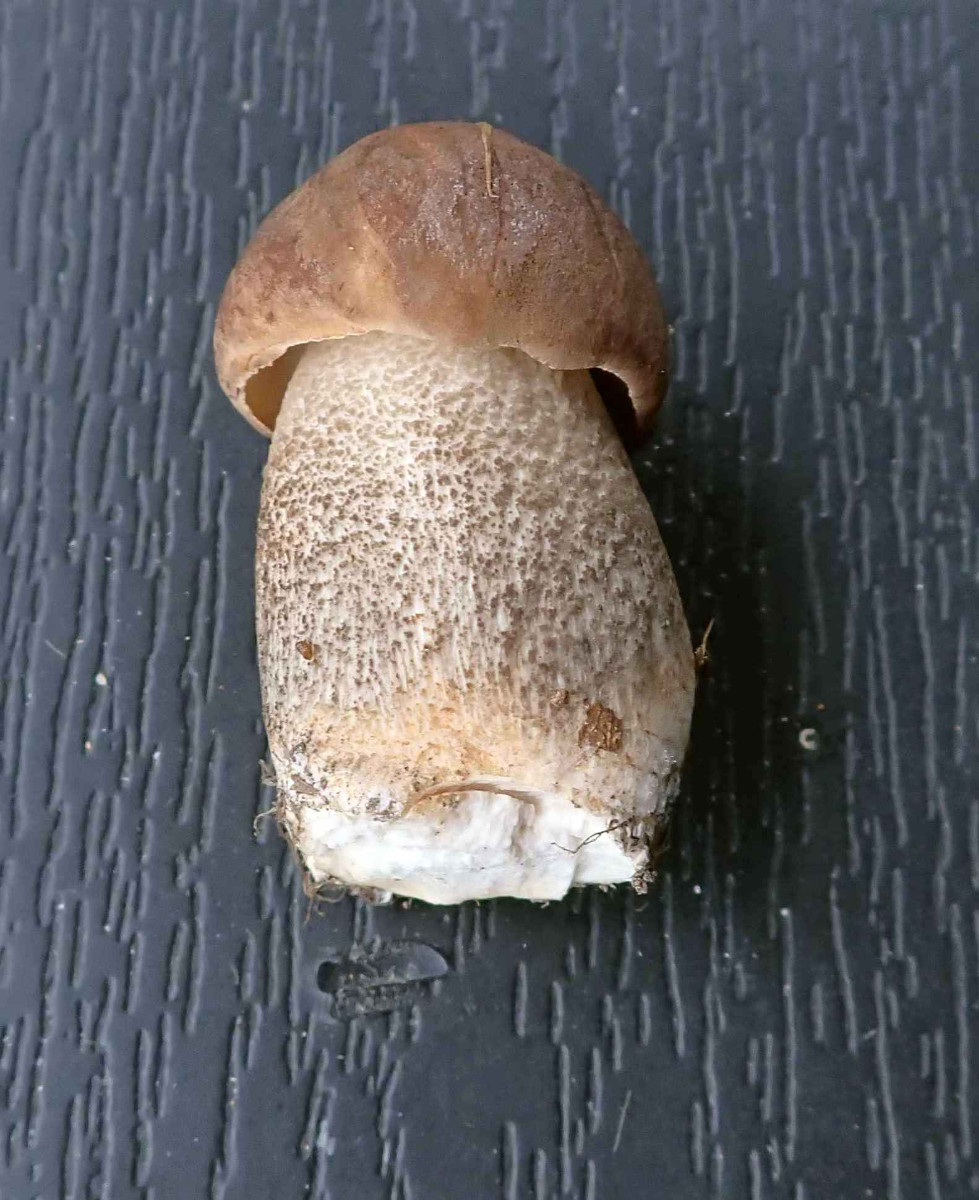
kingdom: Fungi
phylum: Basidiomycota
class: Agaricomycetes
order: Boletales
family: Boletaceae
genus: Leccinum
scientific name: Leccinum scabrum
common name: brun skælrørhat
